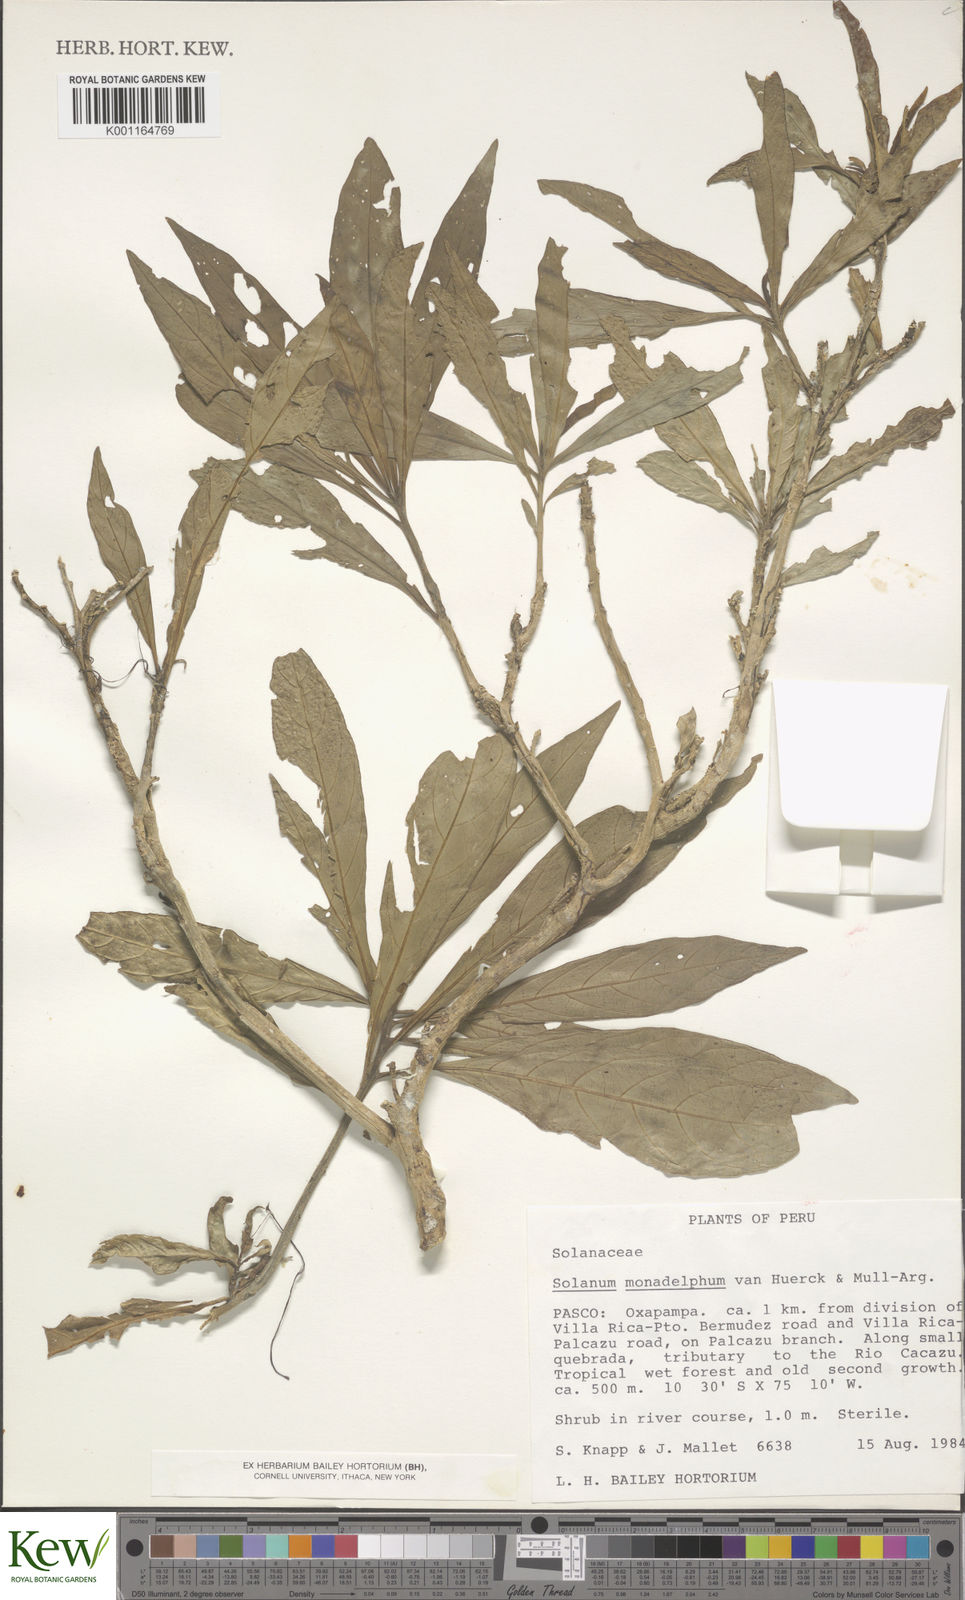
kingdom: Plantae
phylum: Tracheophyta
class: Magnoliopsida
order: Solanales
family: Solanaceae
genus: Solanum
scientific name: Solanum monadelphum
